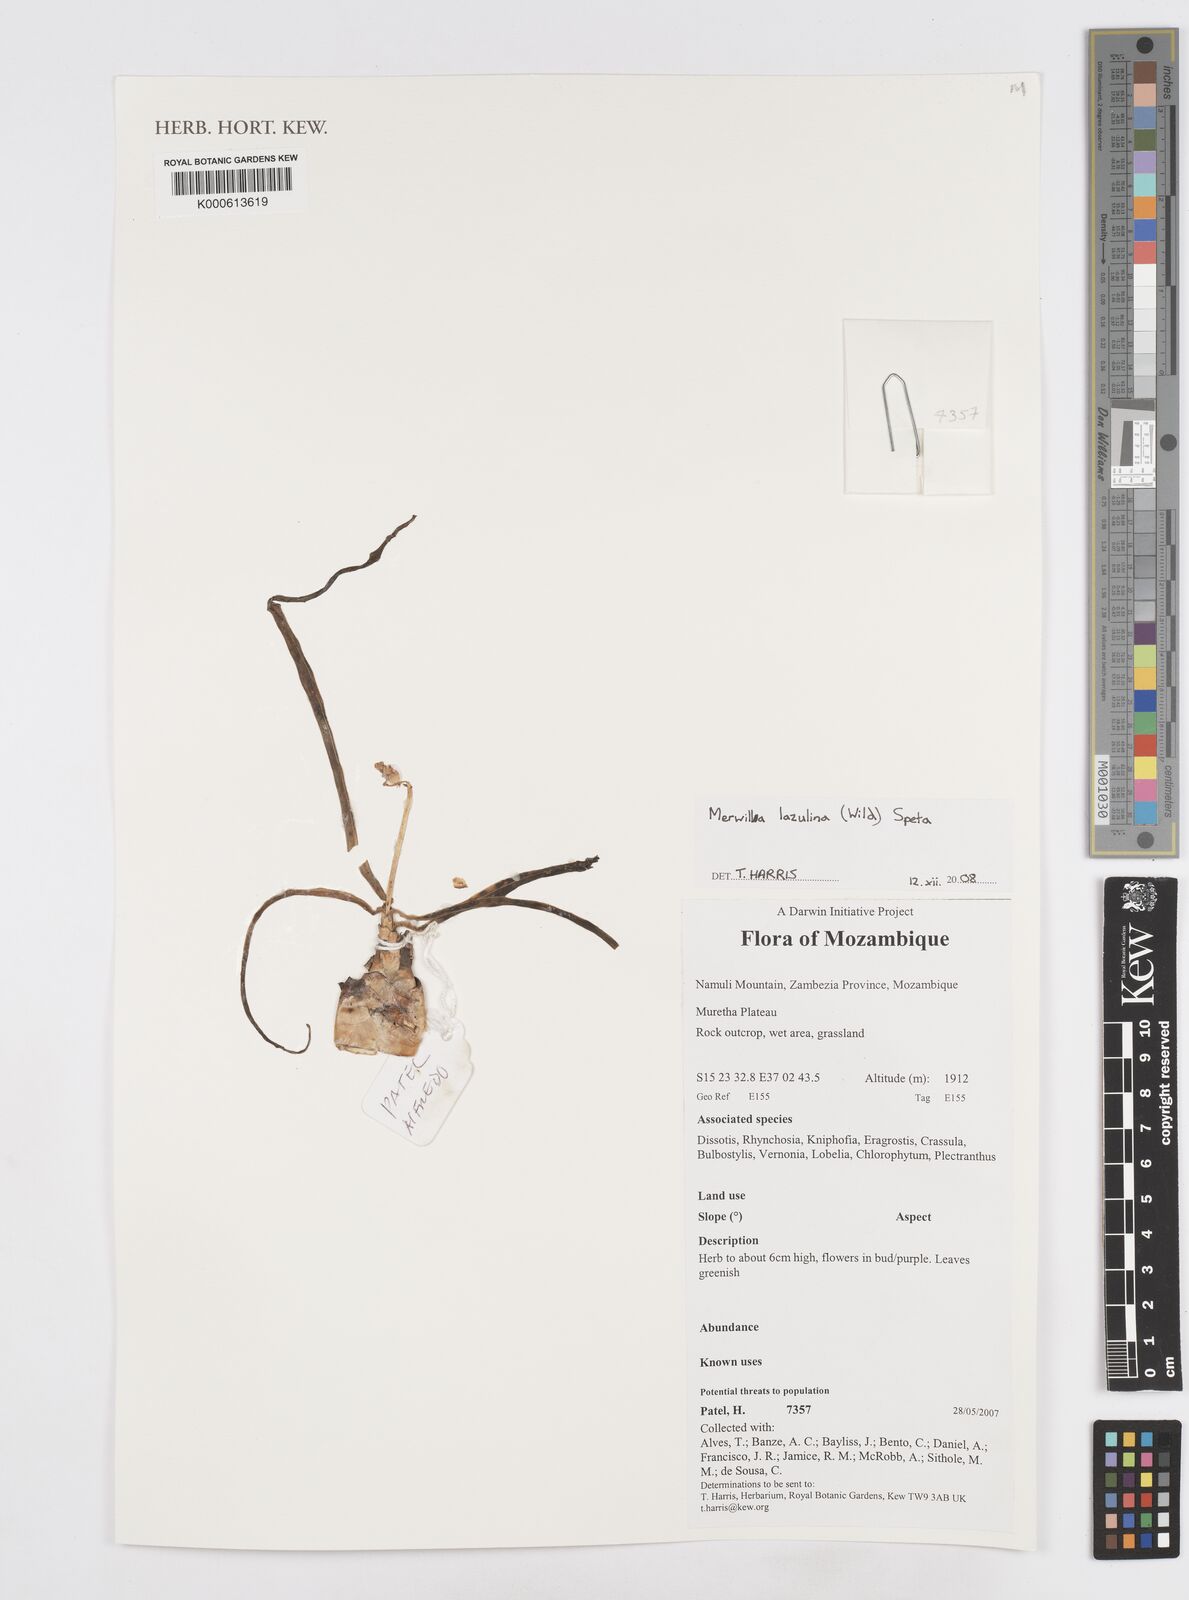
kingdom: Plantae
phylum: Tracheophyta
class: Liliopsida
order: Asparagales
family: Asparagaceae
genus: Merwilla
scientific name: Merwilla plumbea
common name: Blue-squill
